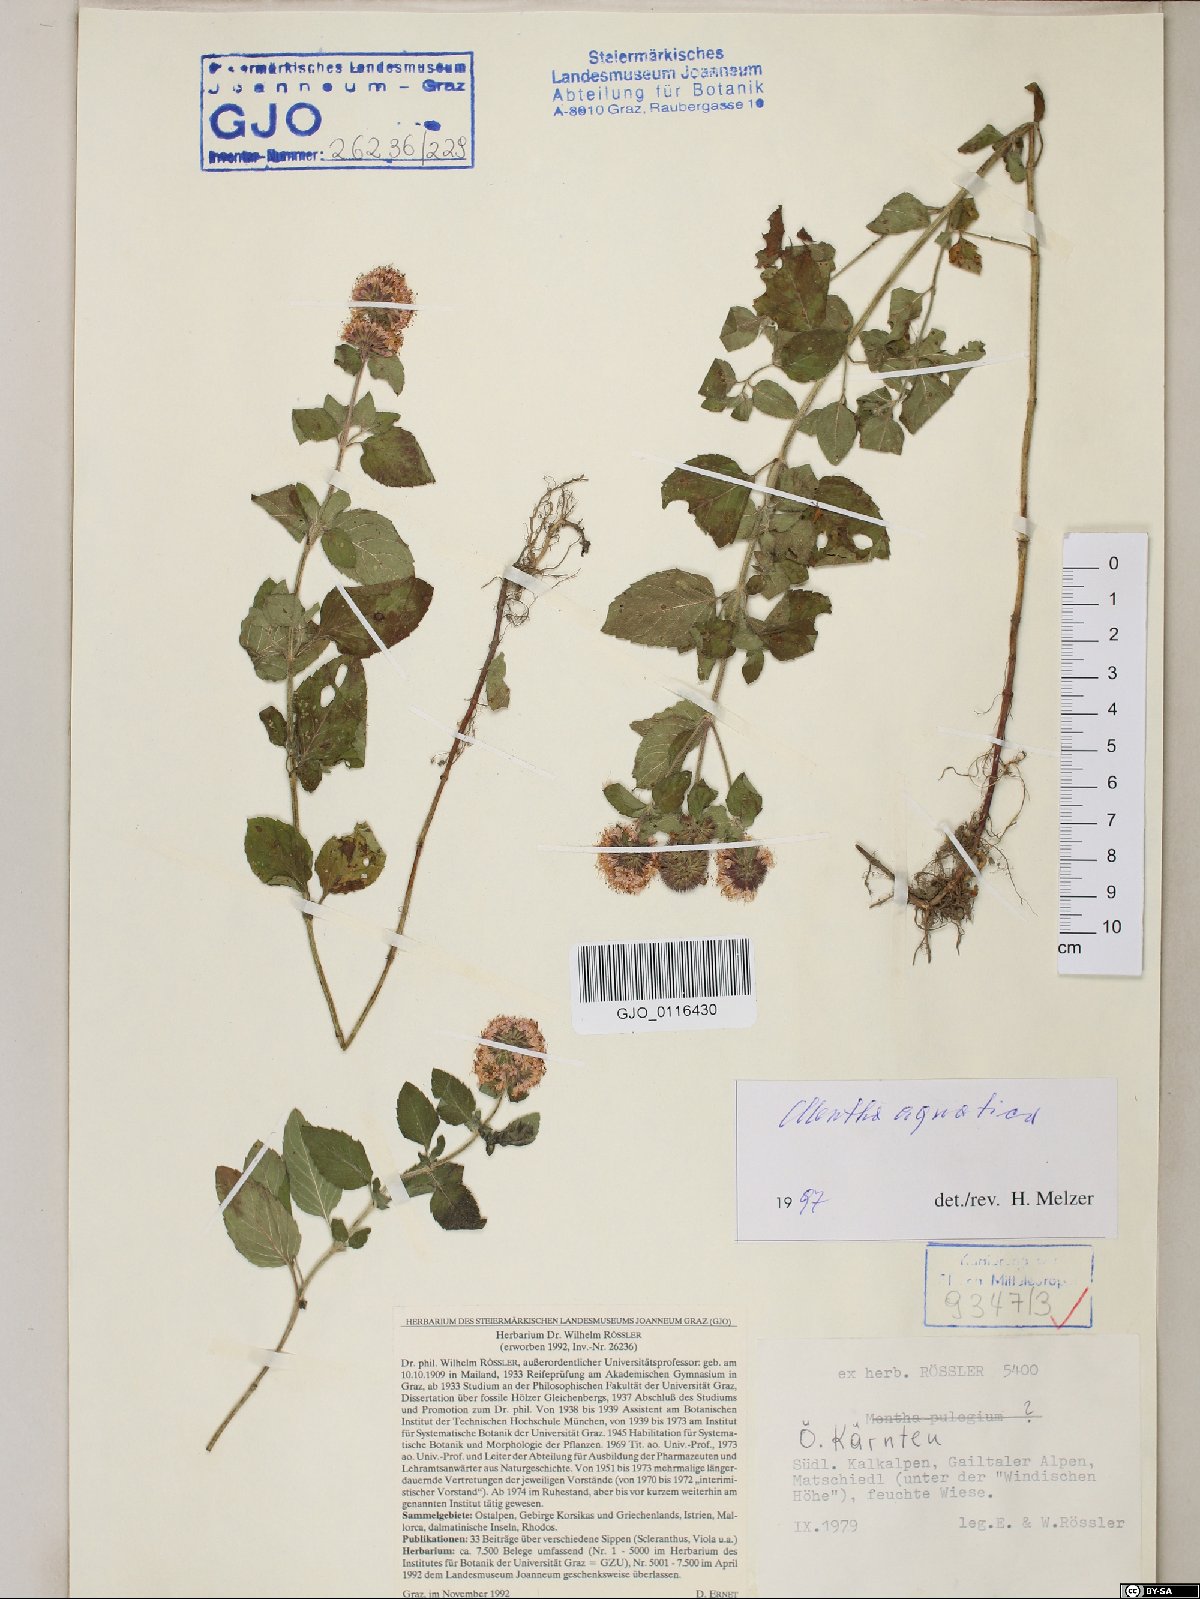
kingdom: Plantae
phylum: Tracheophyta
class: Magnoliopsida
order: Lamiales
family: Lamiaceae
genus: Mentha
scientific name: Mentha aquatica
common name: Water mint
